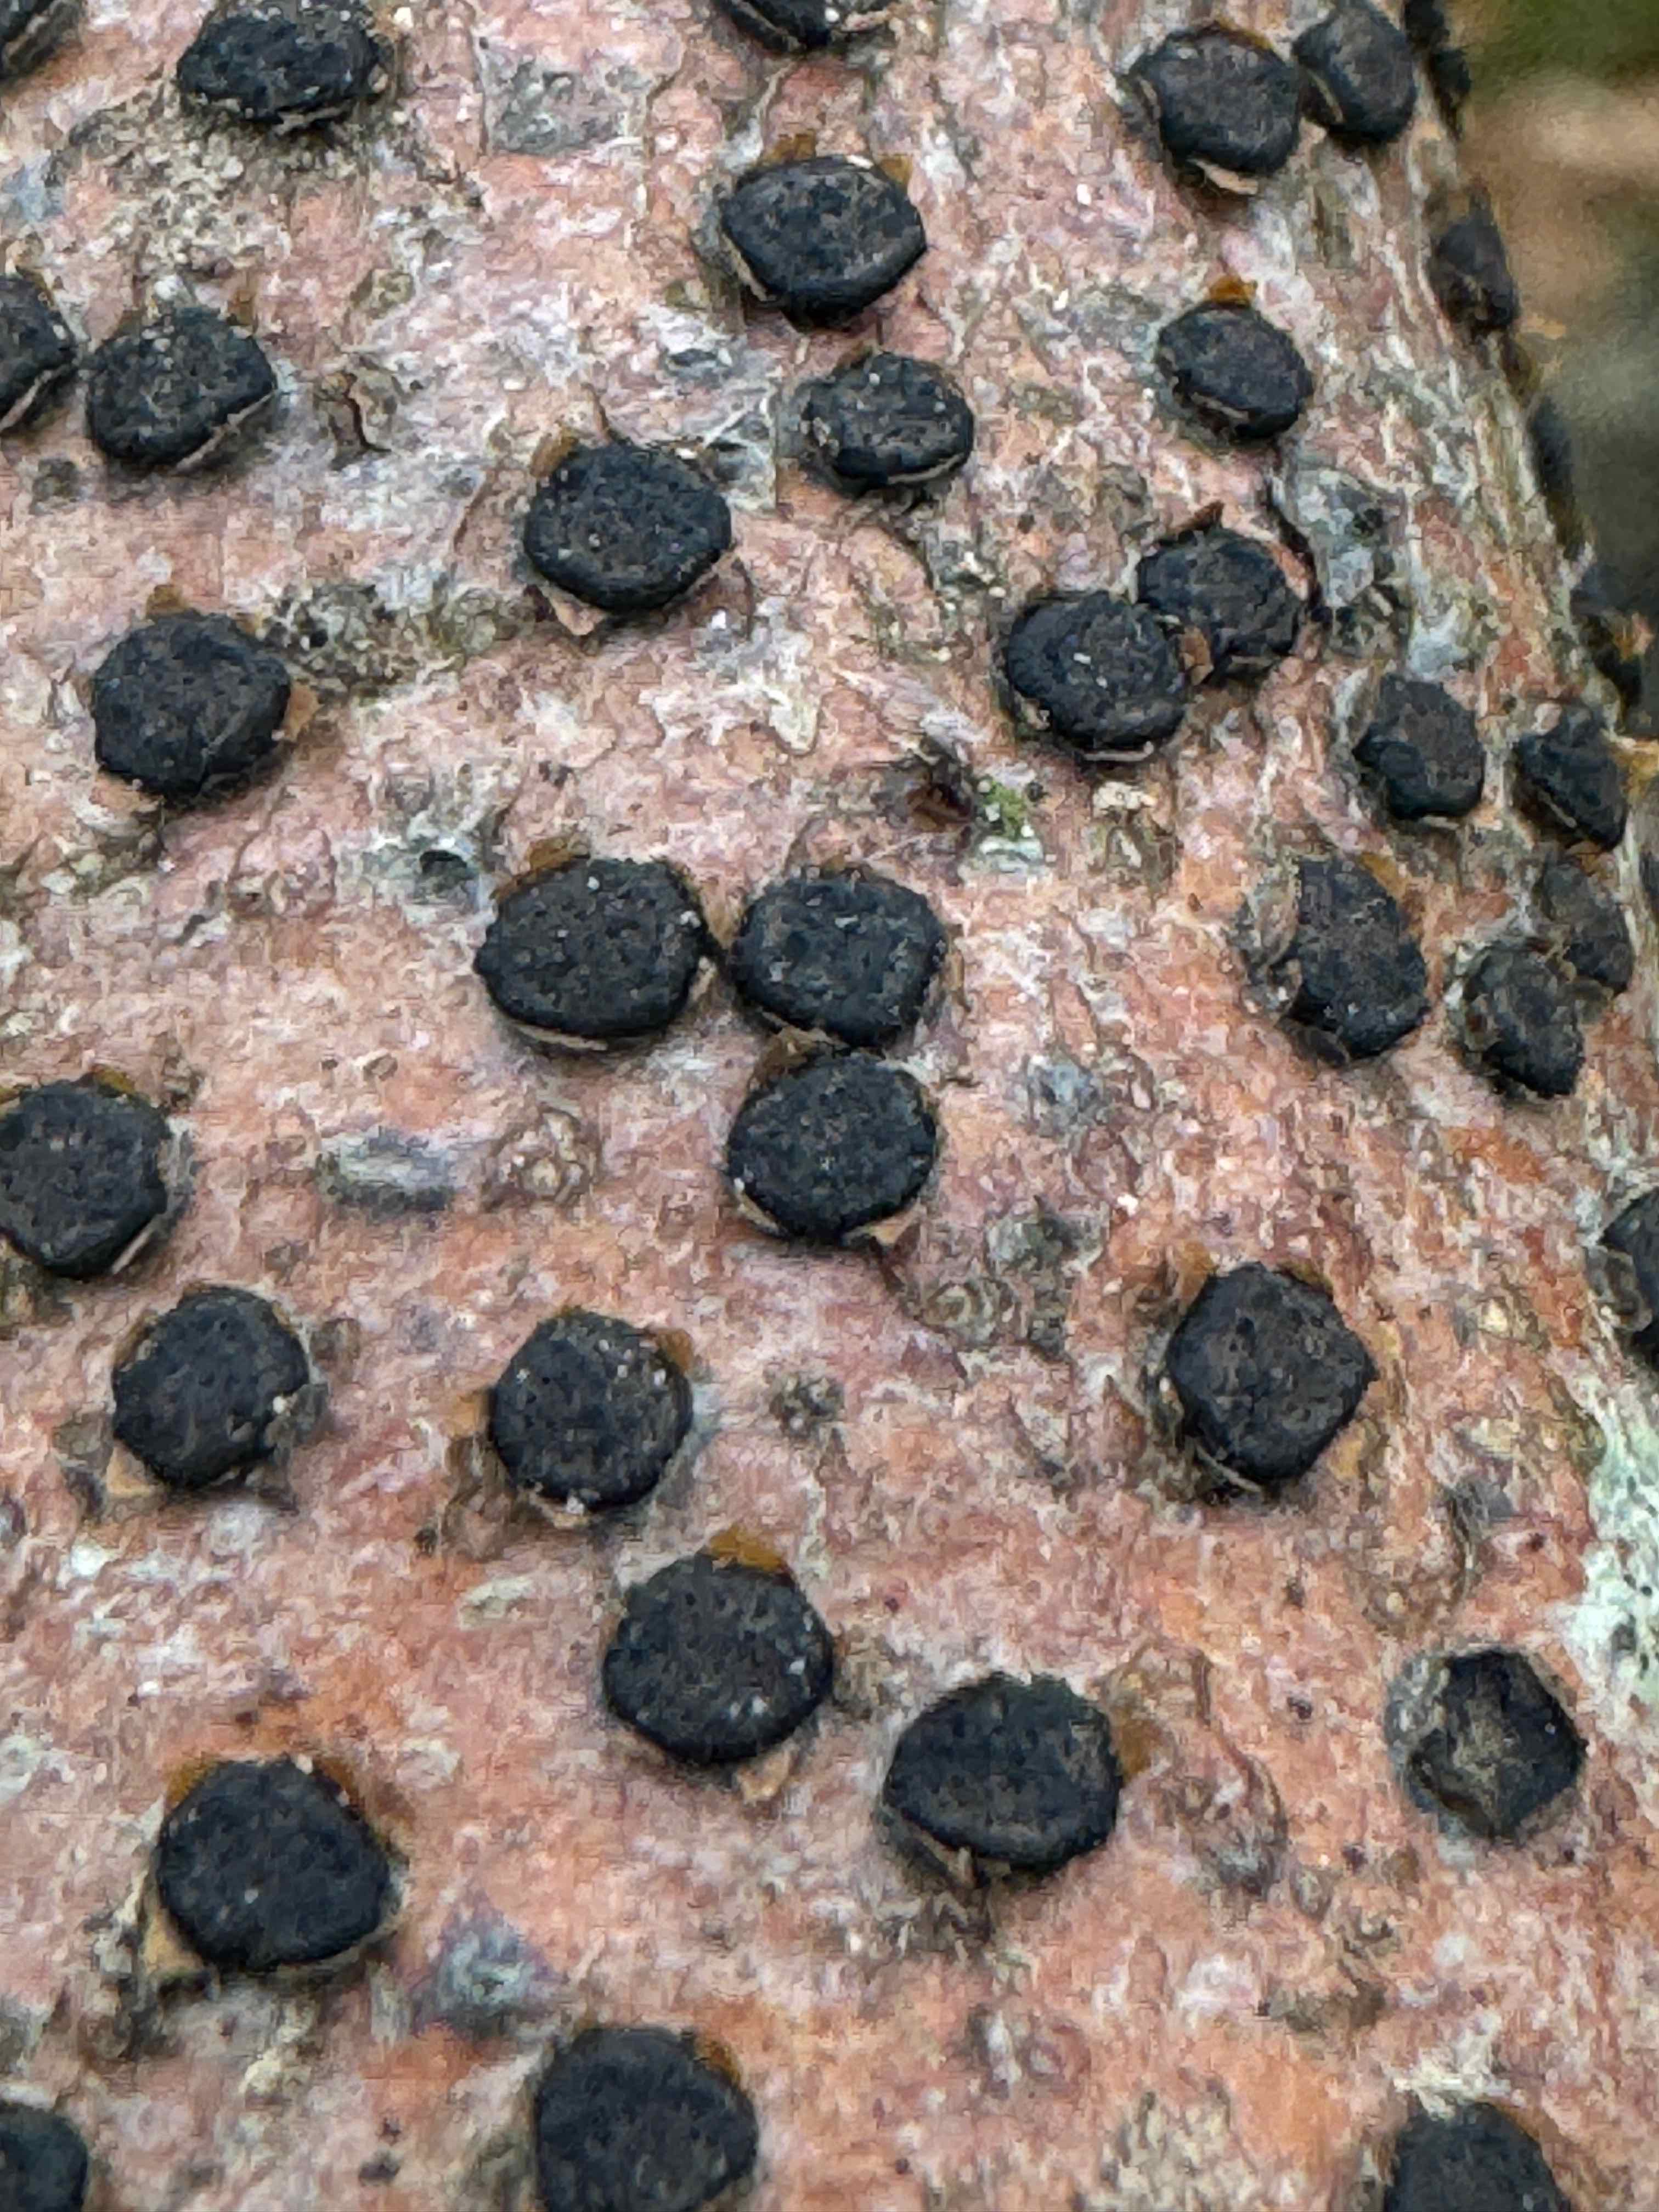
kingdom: Fungi
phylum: Ascomycota
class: Sordariomycetes
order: Xylariales
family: Diatrypaceae
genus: Diatrype
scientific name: Diatrype disciformis
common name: kant-kulskorpe
